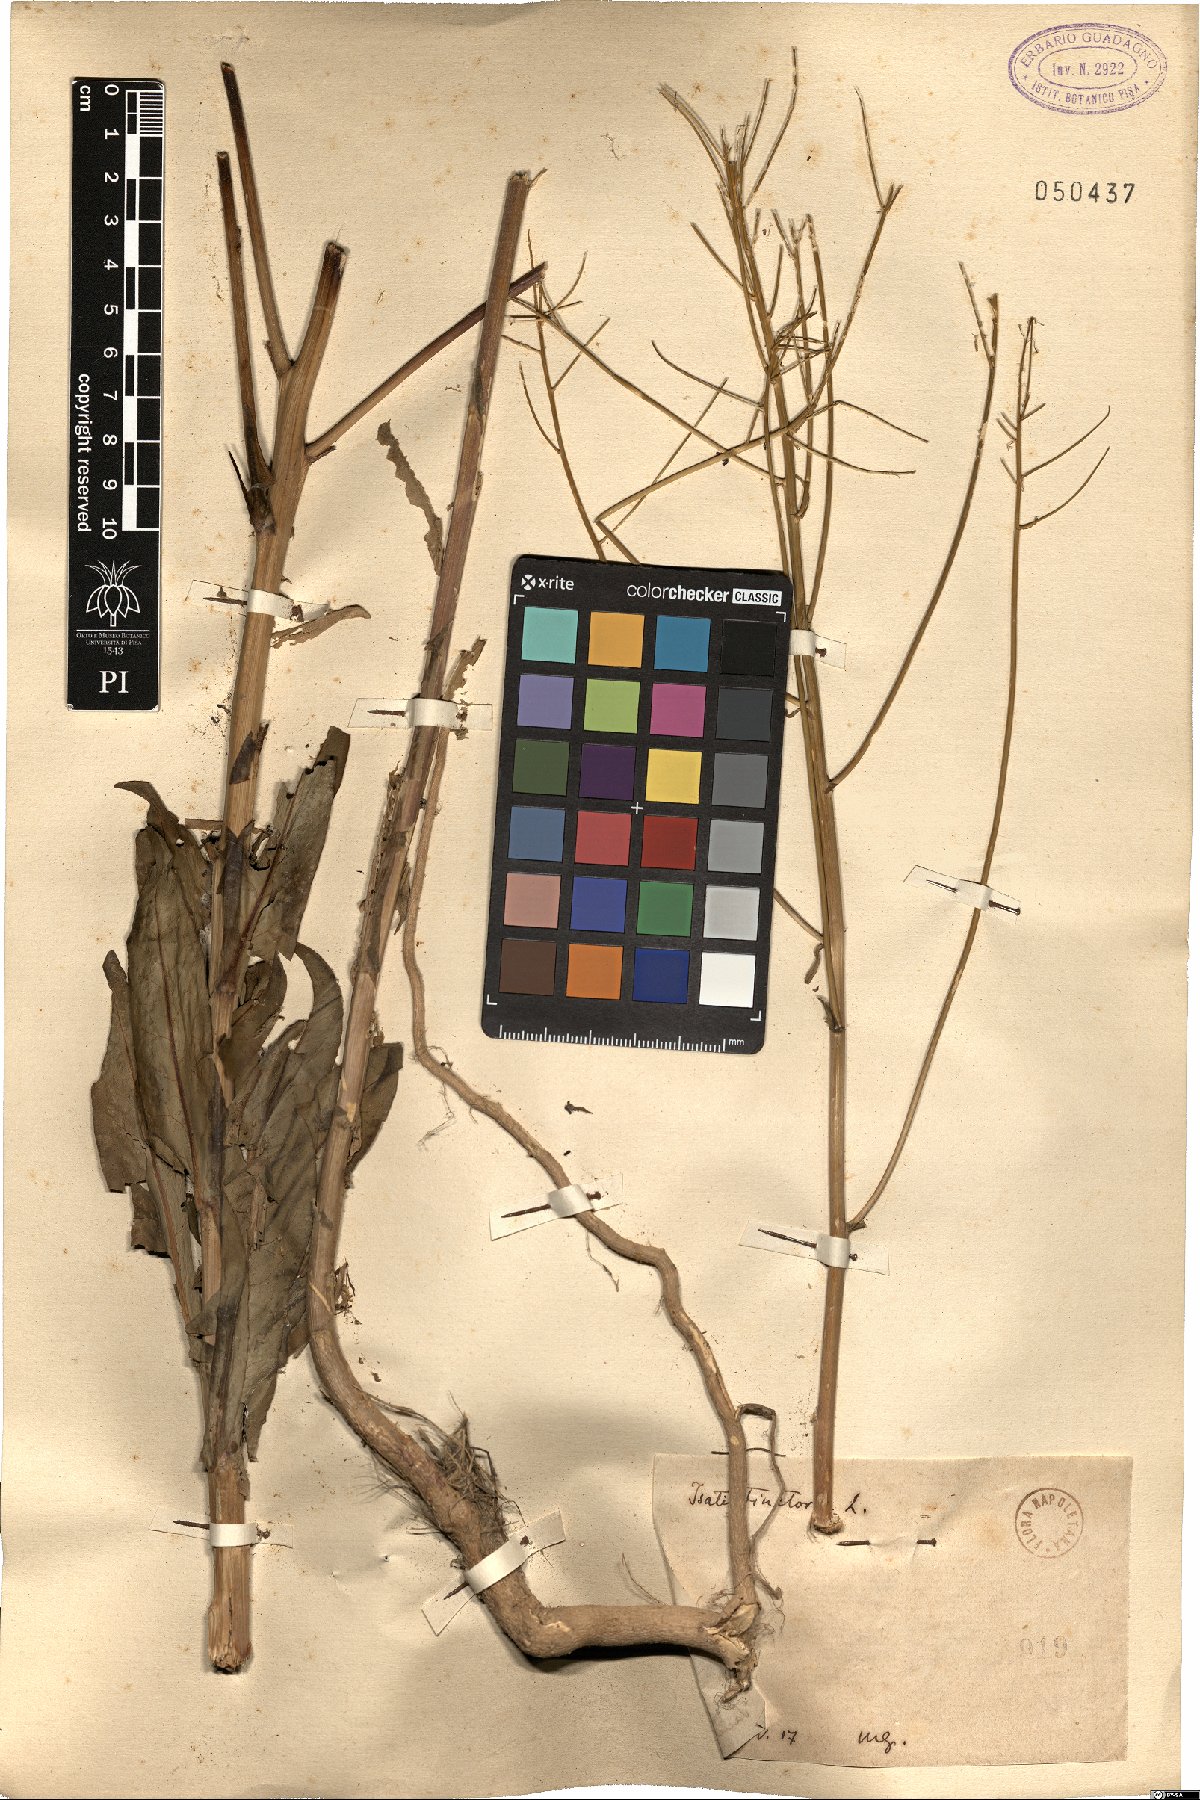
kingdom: Plantae
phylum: Tracheophyta
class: Magnoliopsida
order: Brassicales
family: Brassicaceae
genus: Isatis
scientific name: Isatis tinctoria
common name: Woad
